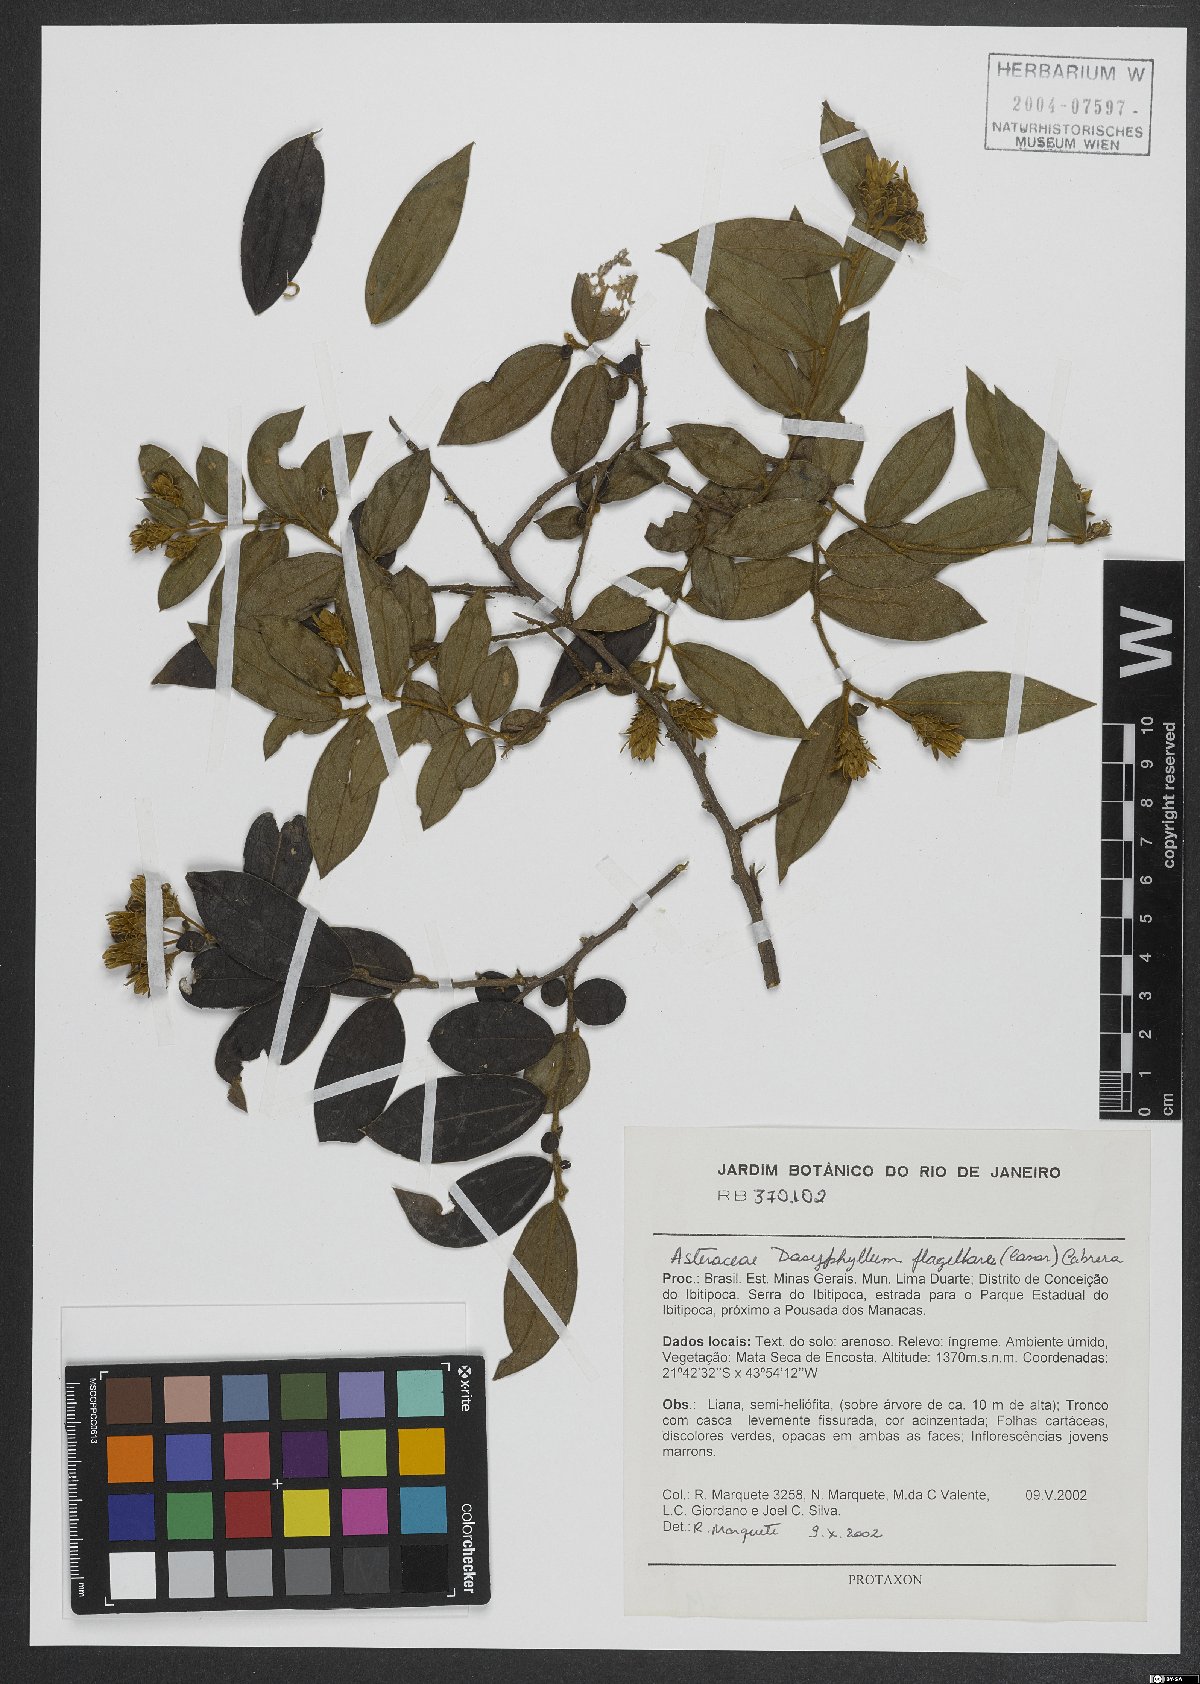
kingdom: Plantae
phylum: Tracheophyta
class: Magnoliopsida
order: Asterales
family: Asteraceae
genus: Dasyphyllum
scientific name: Dasyphyllum flagellare
